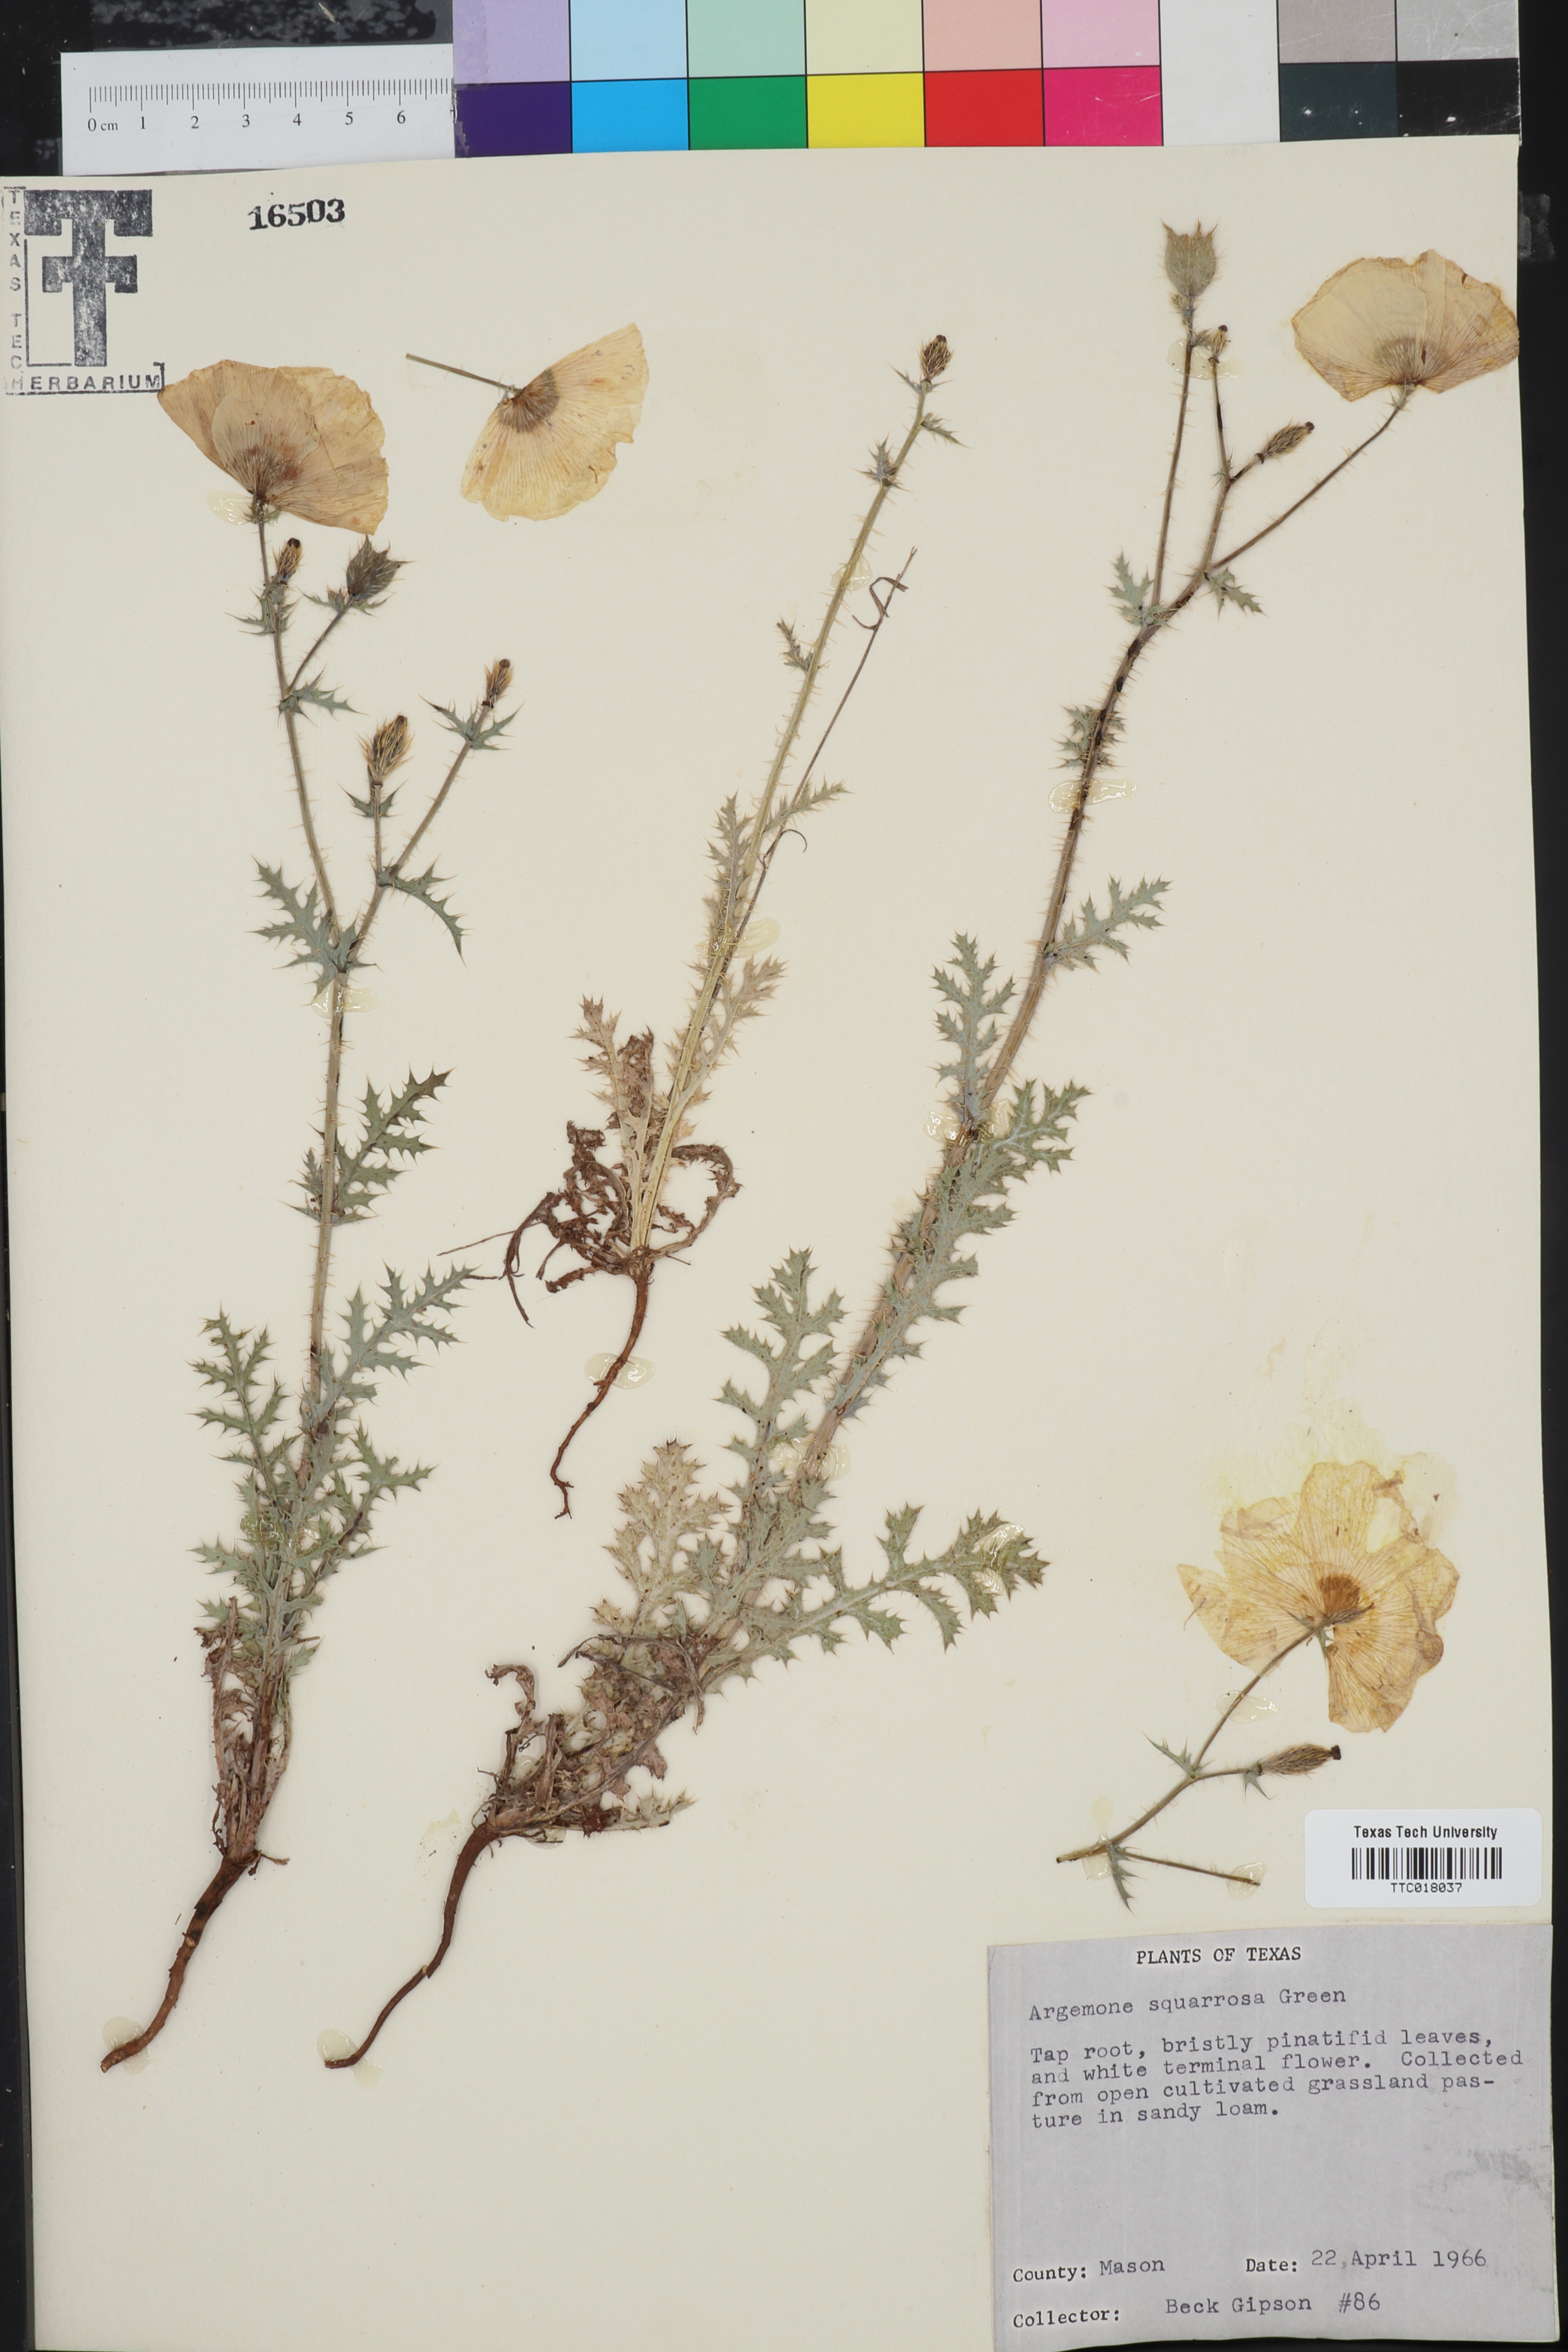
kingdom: Plantae
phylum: Tracheophyta
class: Magnoliopsida
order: Ranunculales
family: Papaveraceae
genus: Argemone
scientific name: Argemone squarrosa
